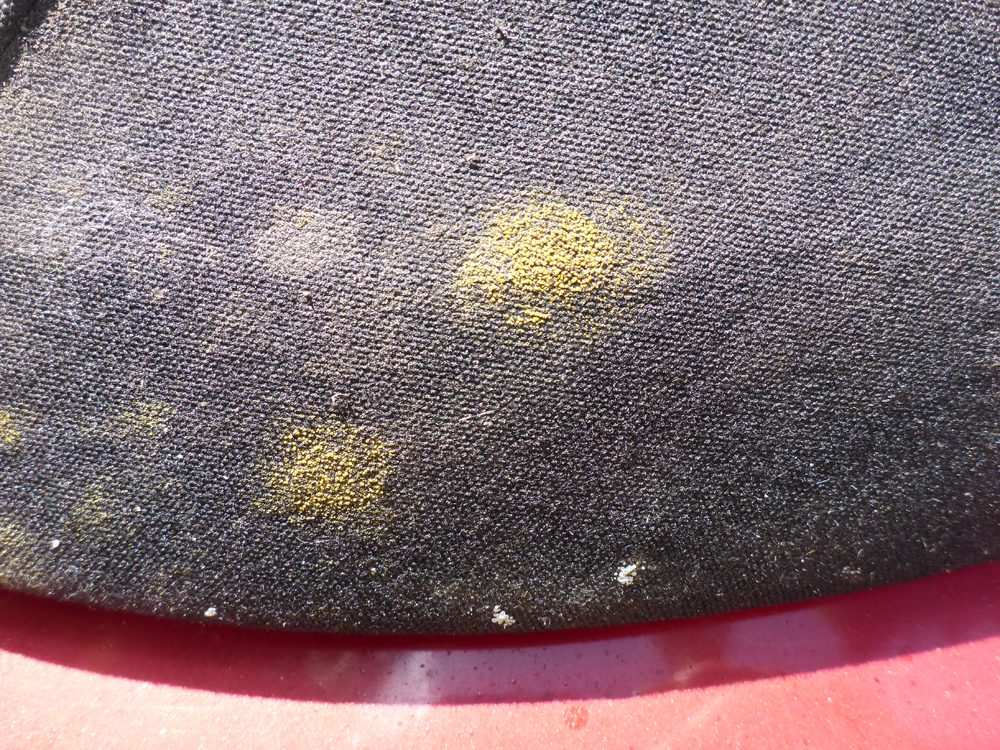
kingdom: Fungi
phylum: Ascomycota
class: Candelariomycetes
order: Candelariales
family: Candelariaceae
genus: Candelariella
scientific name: Candelariella aurella
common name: Hidden goldspeck lichen
